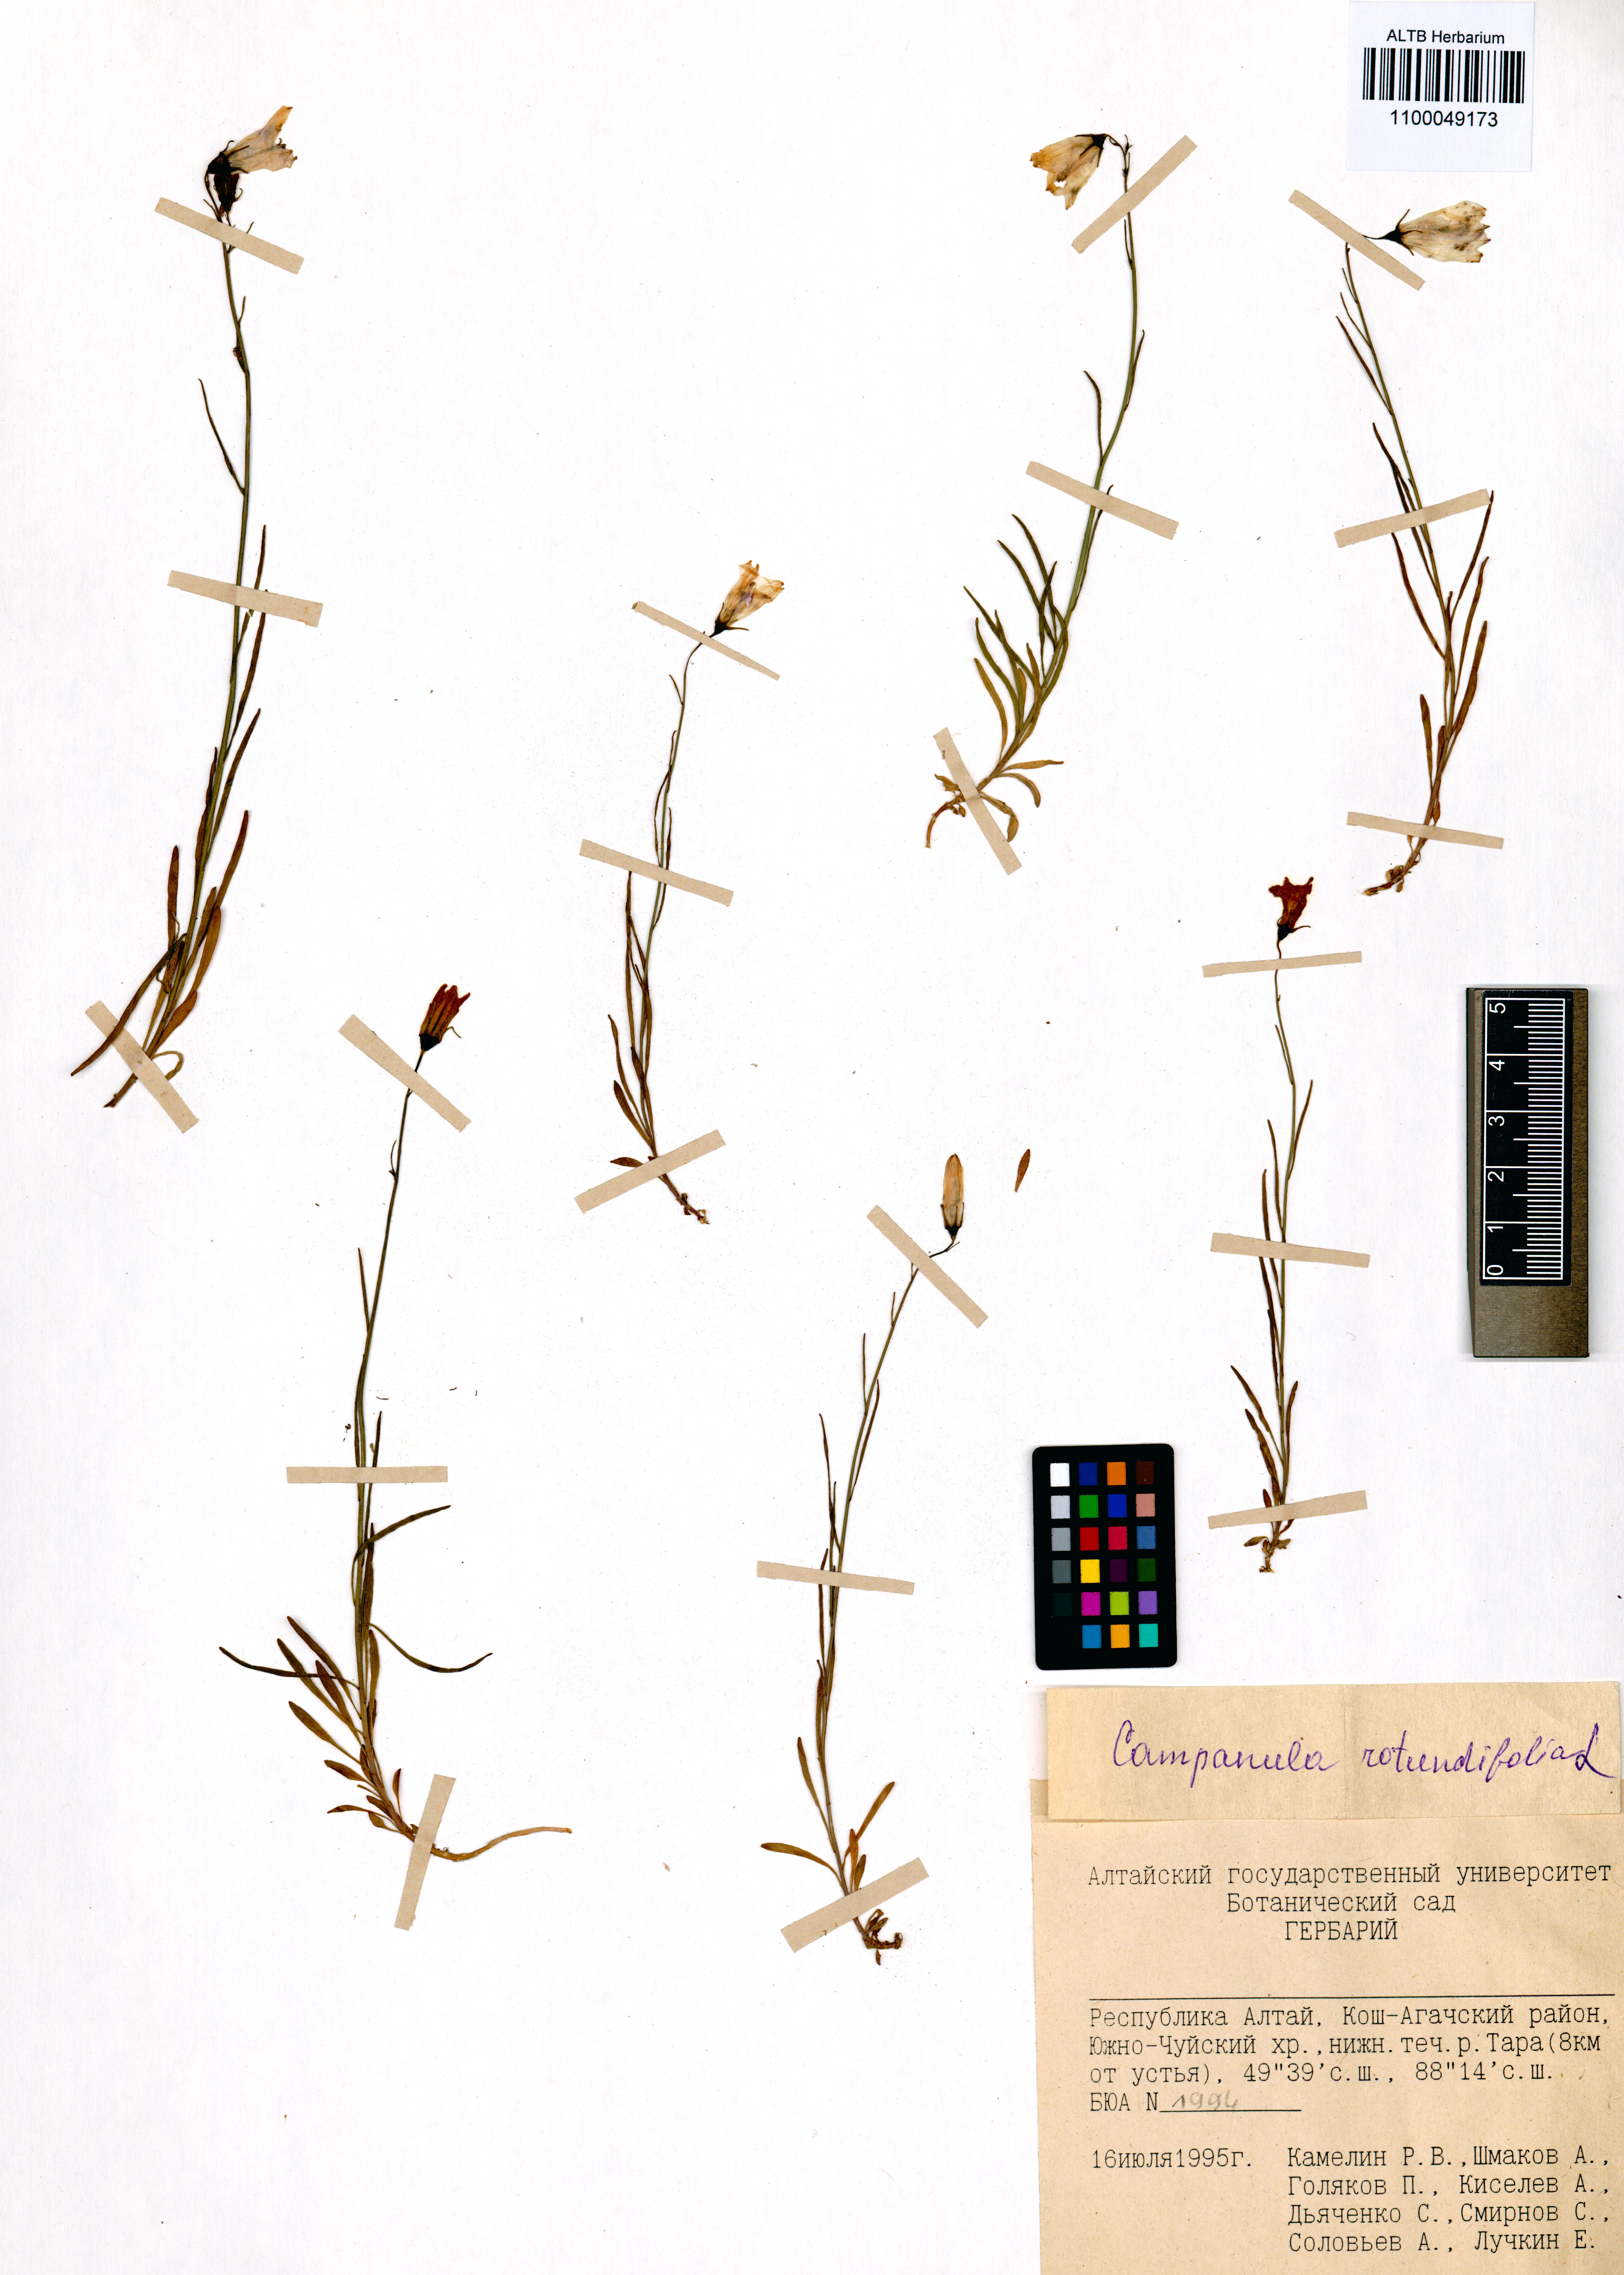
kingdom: Plantae
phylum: Tracheophyta
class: Magnoliopsida
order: Asterales
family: Campanulaceae
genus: Campanula
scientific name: Campanula rotundifolia
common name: Harebell
